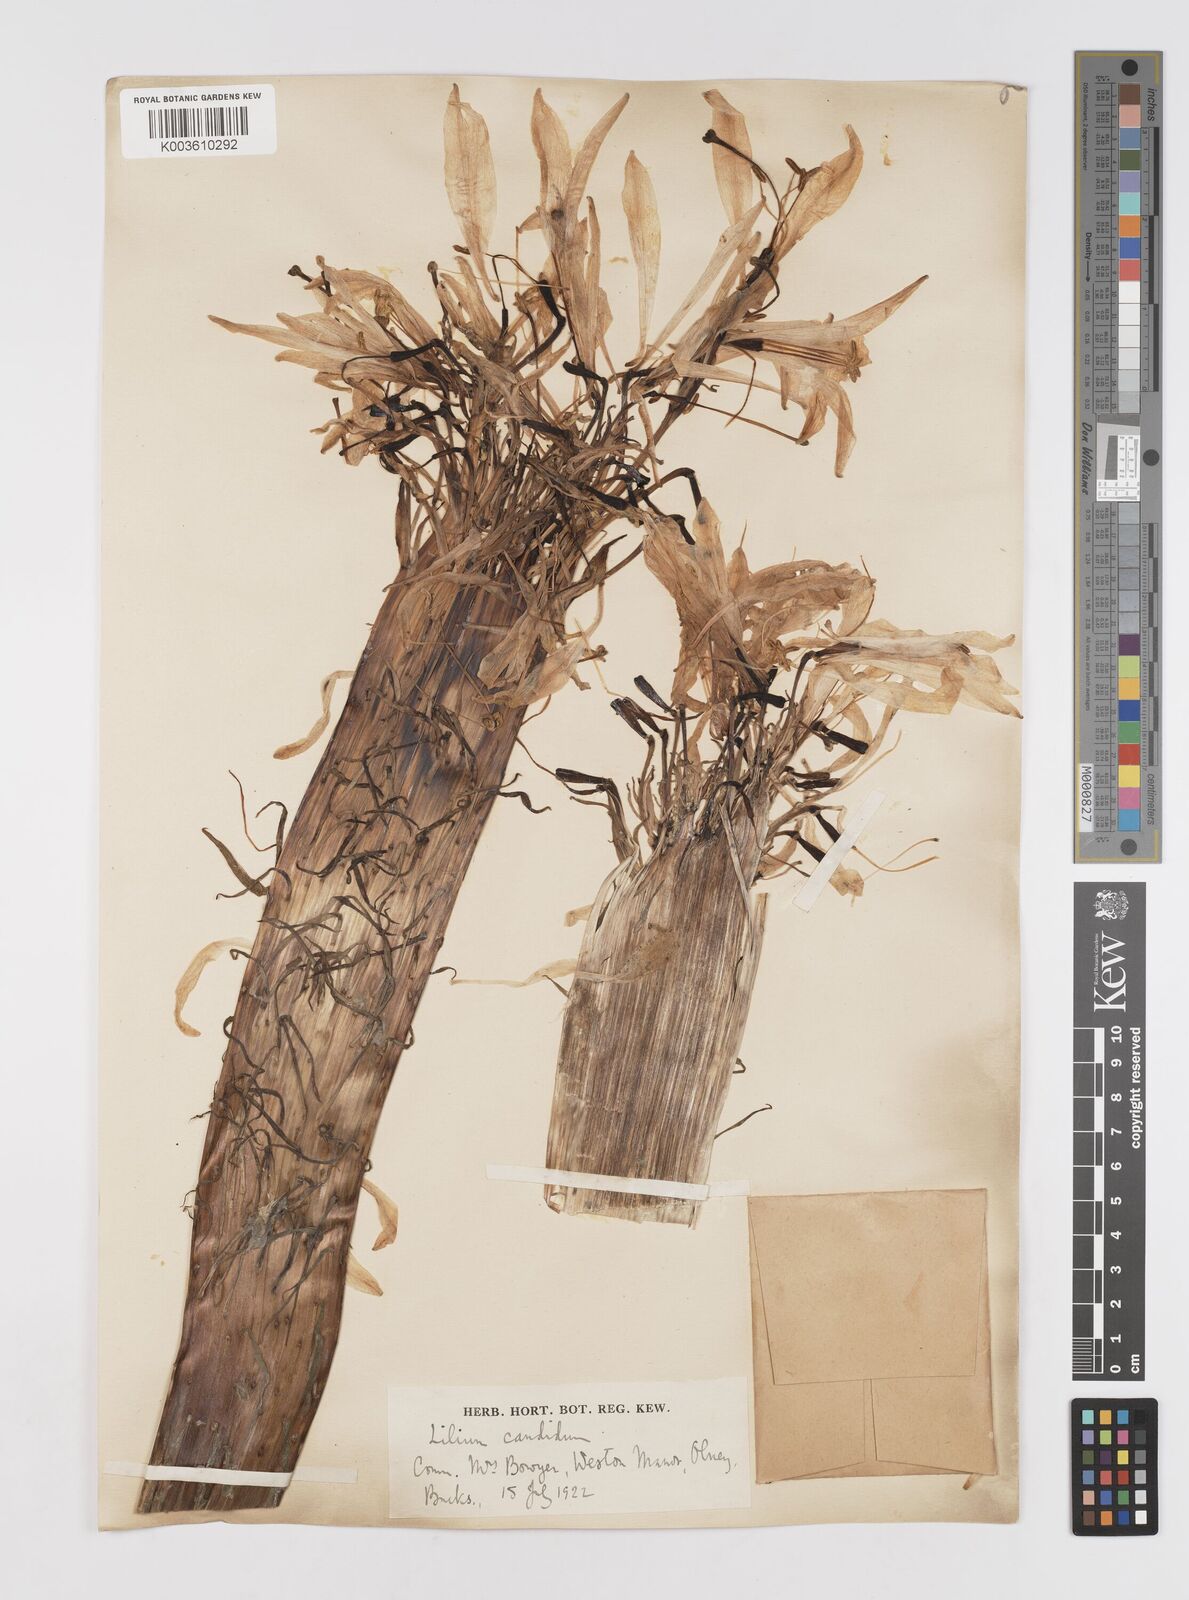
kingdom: Plantae
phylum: Tracheophyta
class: Liliopsida
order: Liliales
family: Liliaceae
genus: Lilium
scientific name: Lilium
